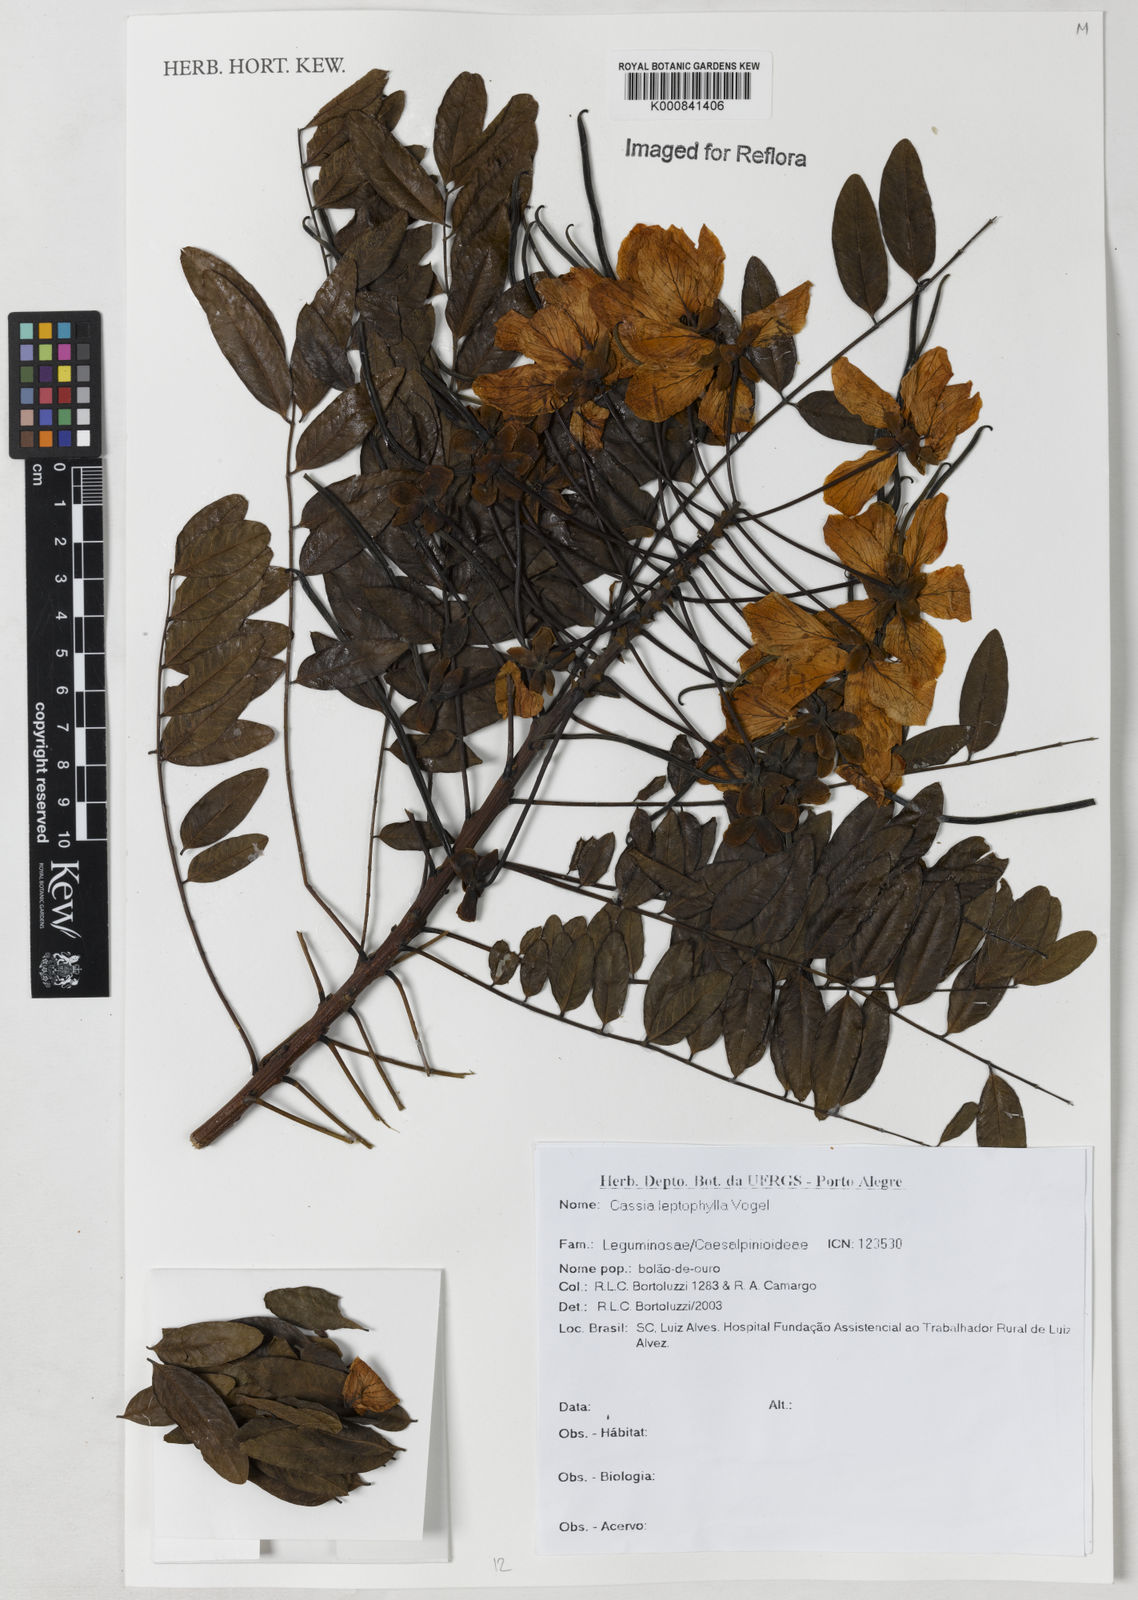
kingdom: Plantae
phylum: Tracheophyta
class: Magnoliopsida
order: Fabales
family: Fabaceae
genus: Cassia
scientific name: Cassia leptophylla
